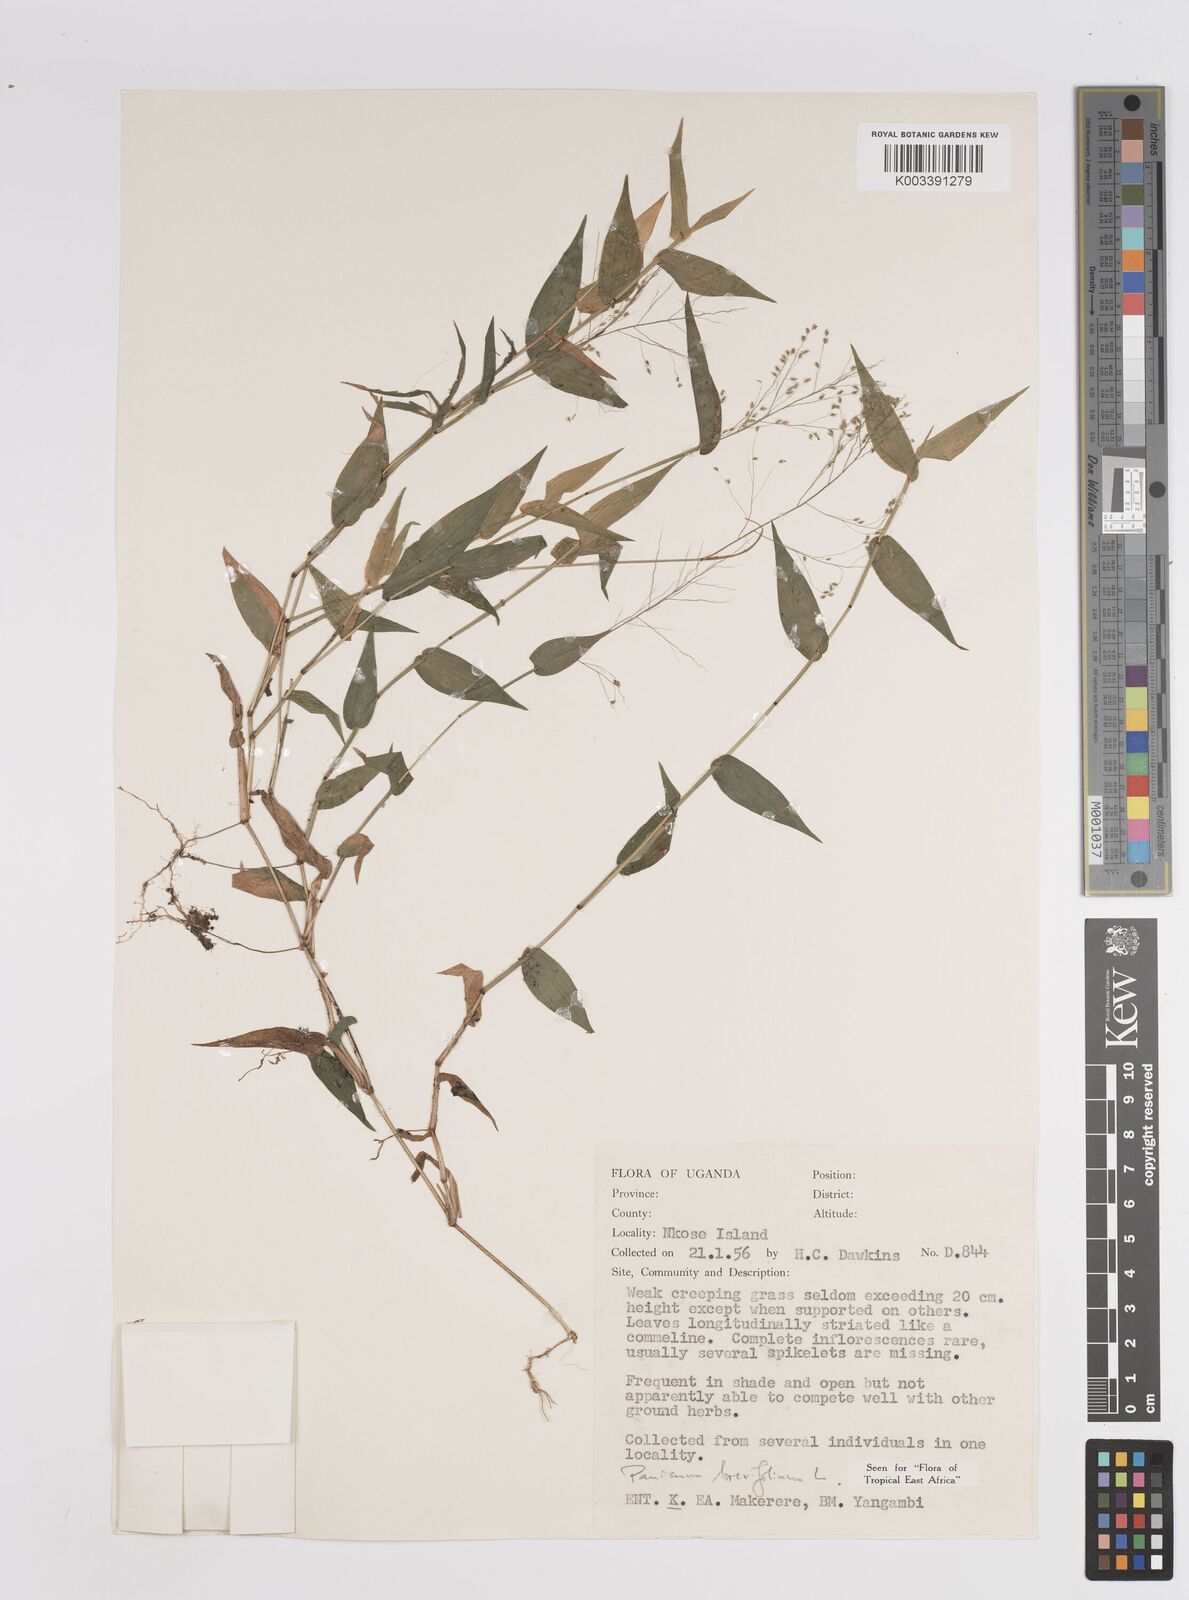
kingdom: Plantae
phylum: Tracheophyta
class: Liliopsida
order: Poales
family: Poaceae
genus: Panicum
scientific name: Panicum brevifolium
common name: Shortleaf panic grass
